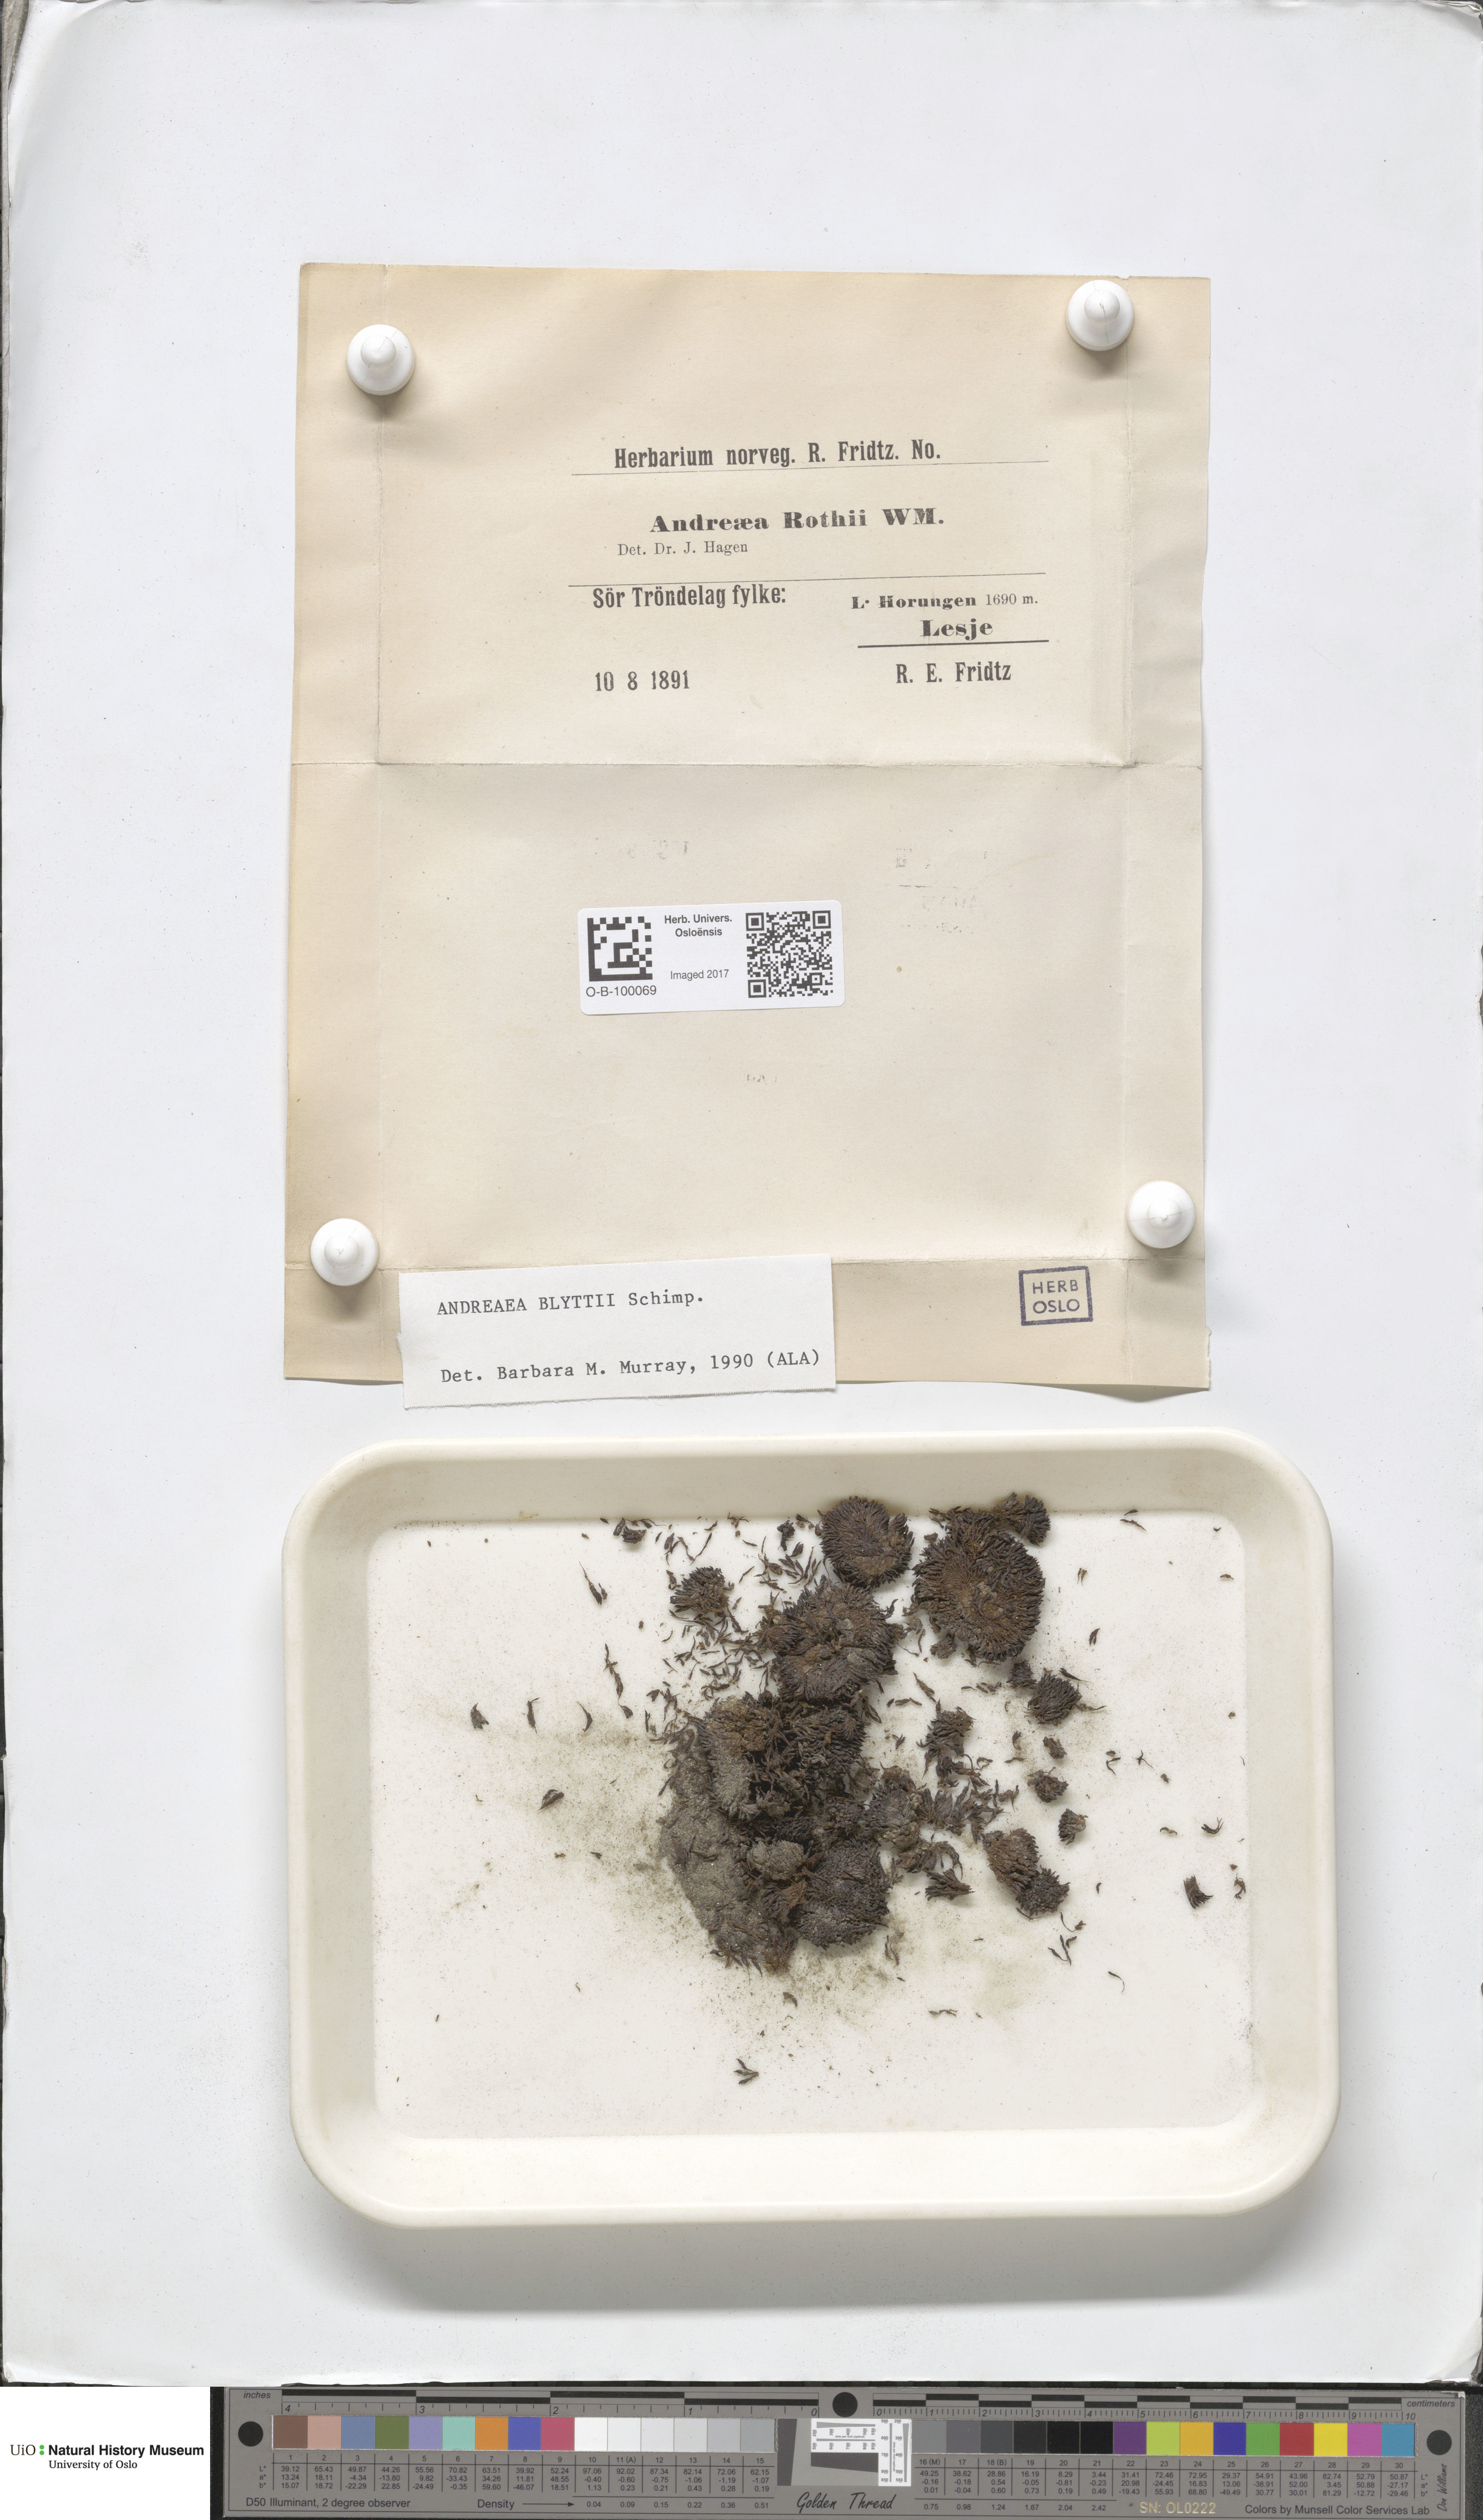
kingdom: Plantae
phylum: Bryophyta
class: Andreaeopsida
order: Andreaeales
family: Andreaeaceae
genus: Andreaea
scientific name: Andreaea blyttii
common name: Blytt's rock moss
